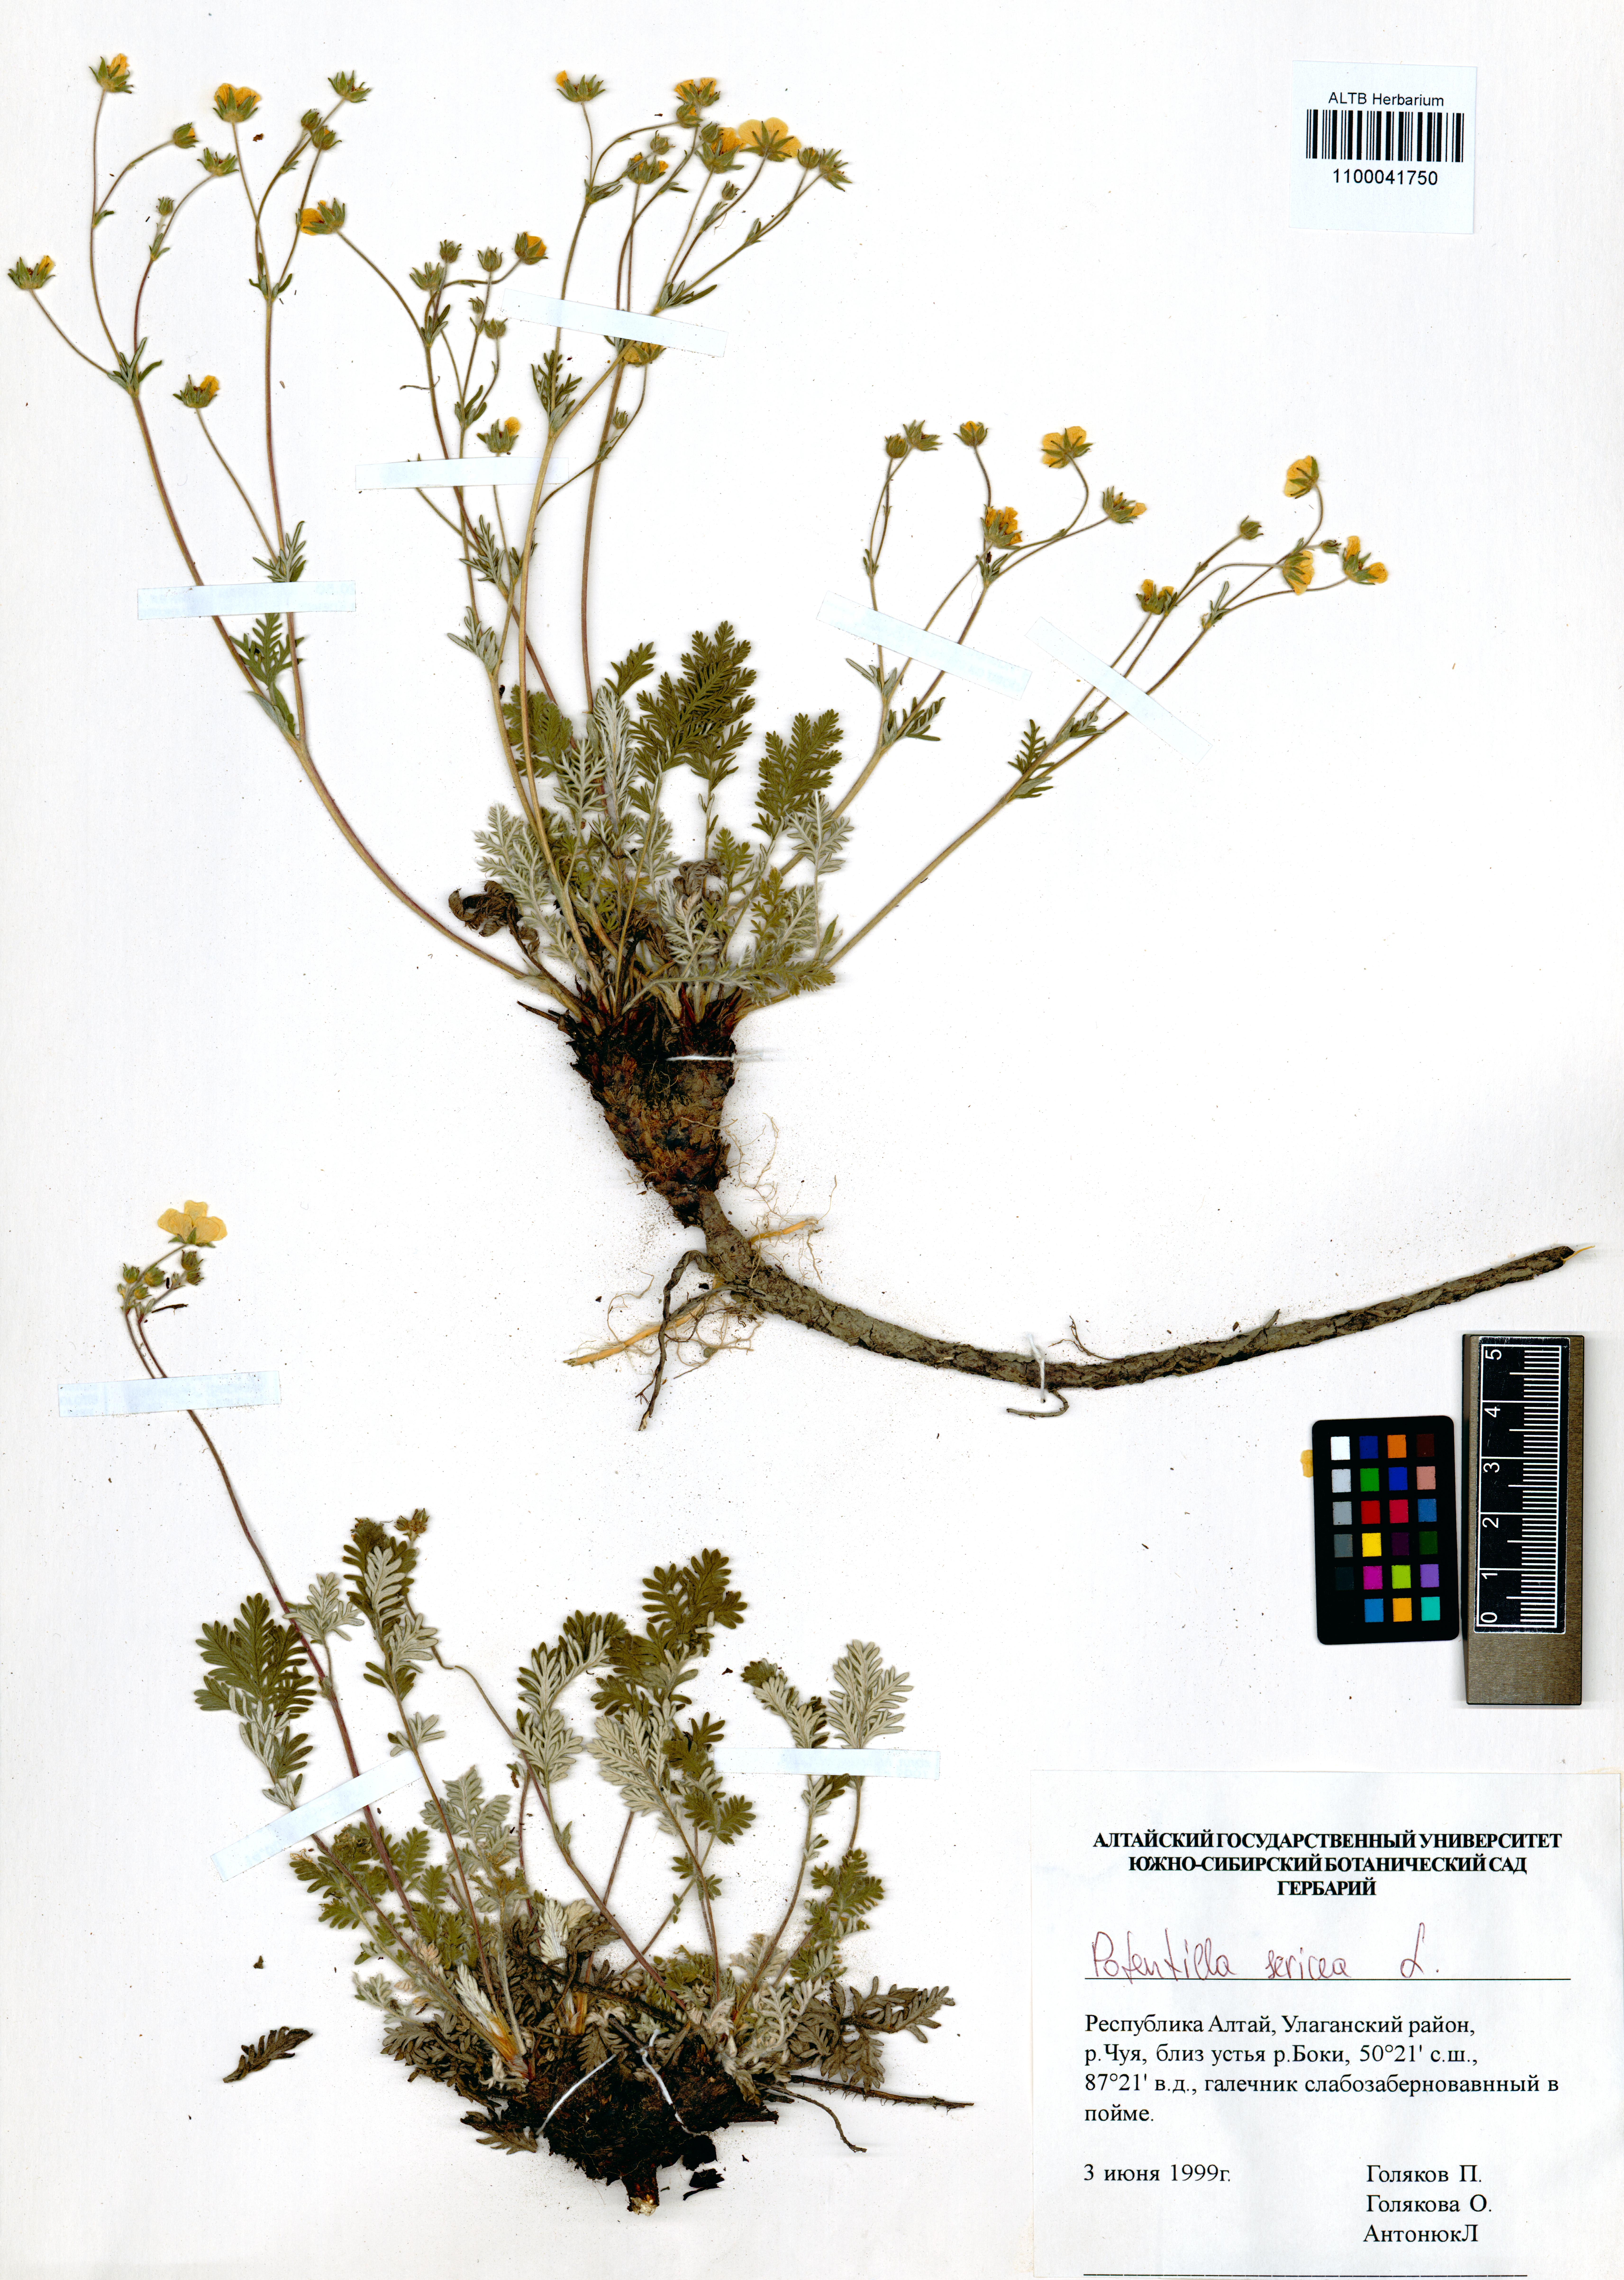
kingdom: Plantae
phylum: Tracheophyta
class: Magnoliopsida
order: Rosales
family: Rosaceae
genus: Potentilla
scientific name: Potentilla sericea
